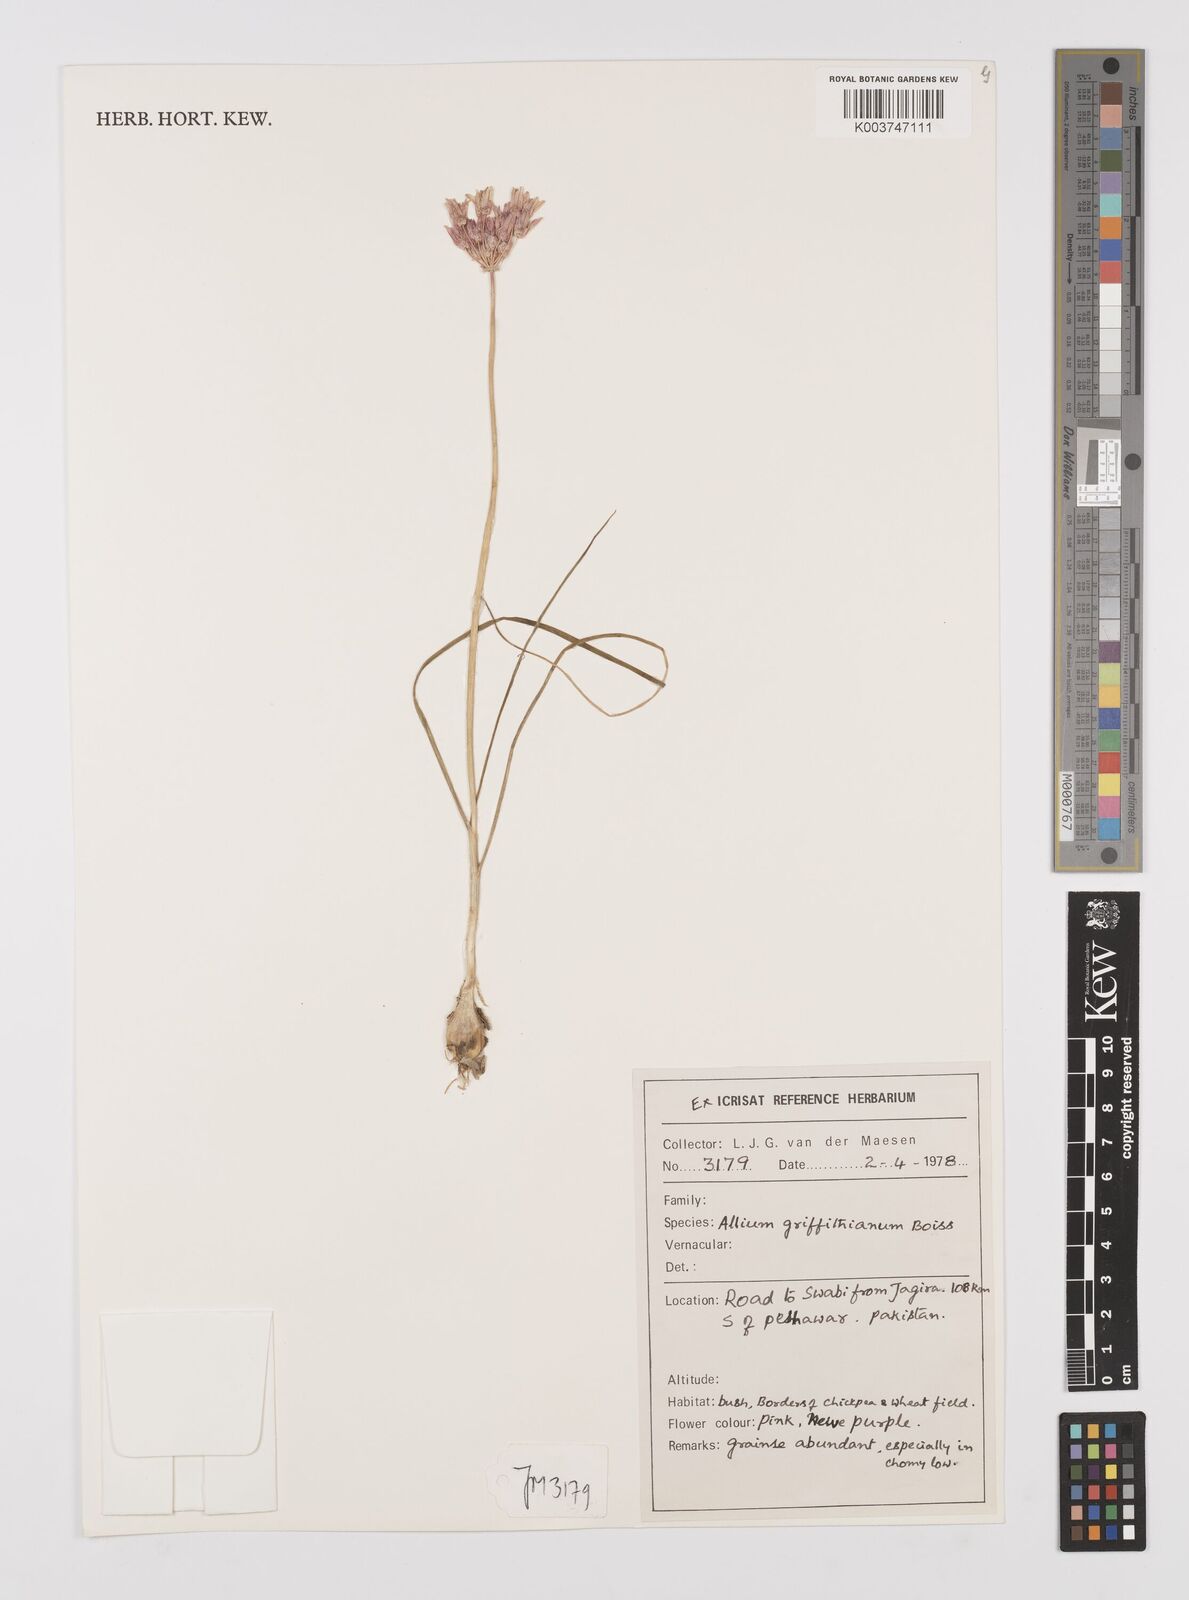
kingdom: Plantae
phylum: Tracheophyta
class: Liliopsida
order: Asparagales
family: Amaryllidaceae
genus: Allium
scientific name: Allium griffithianum
